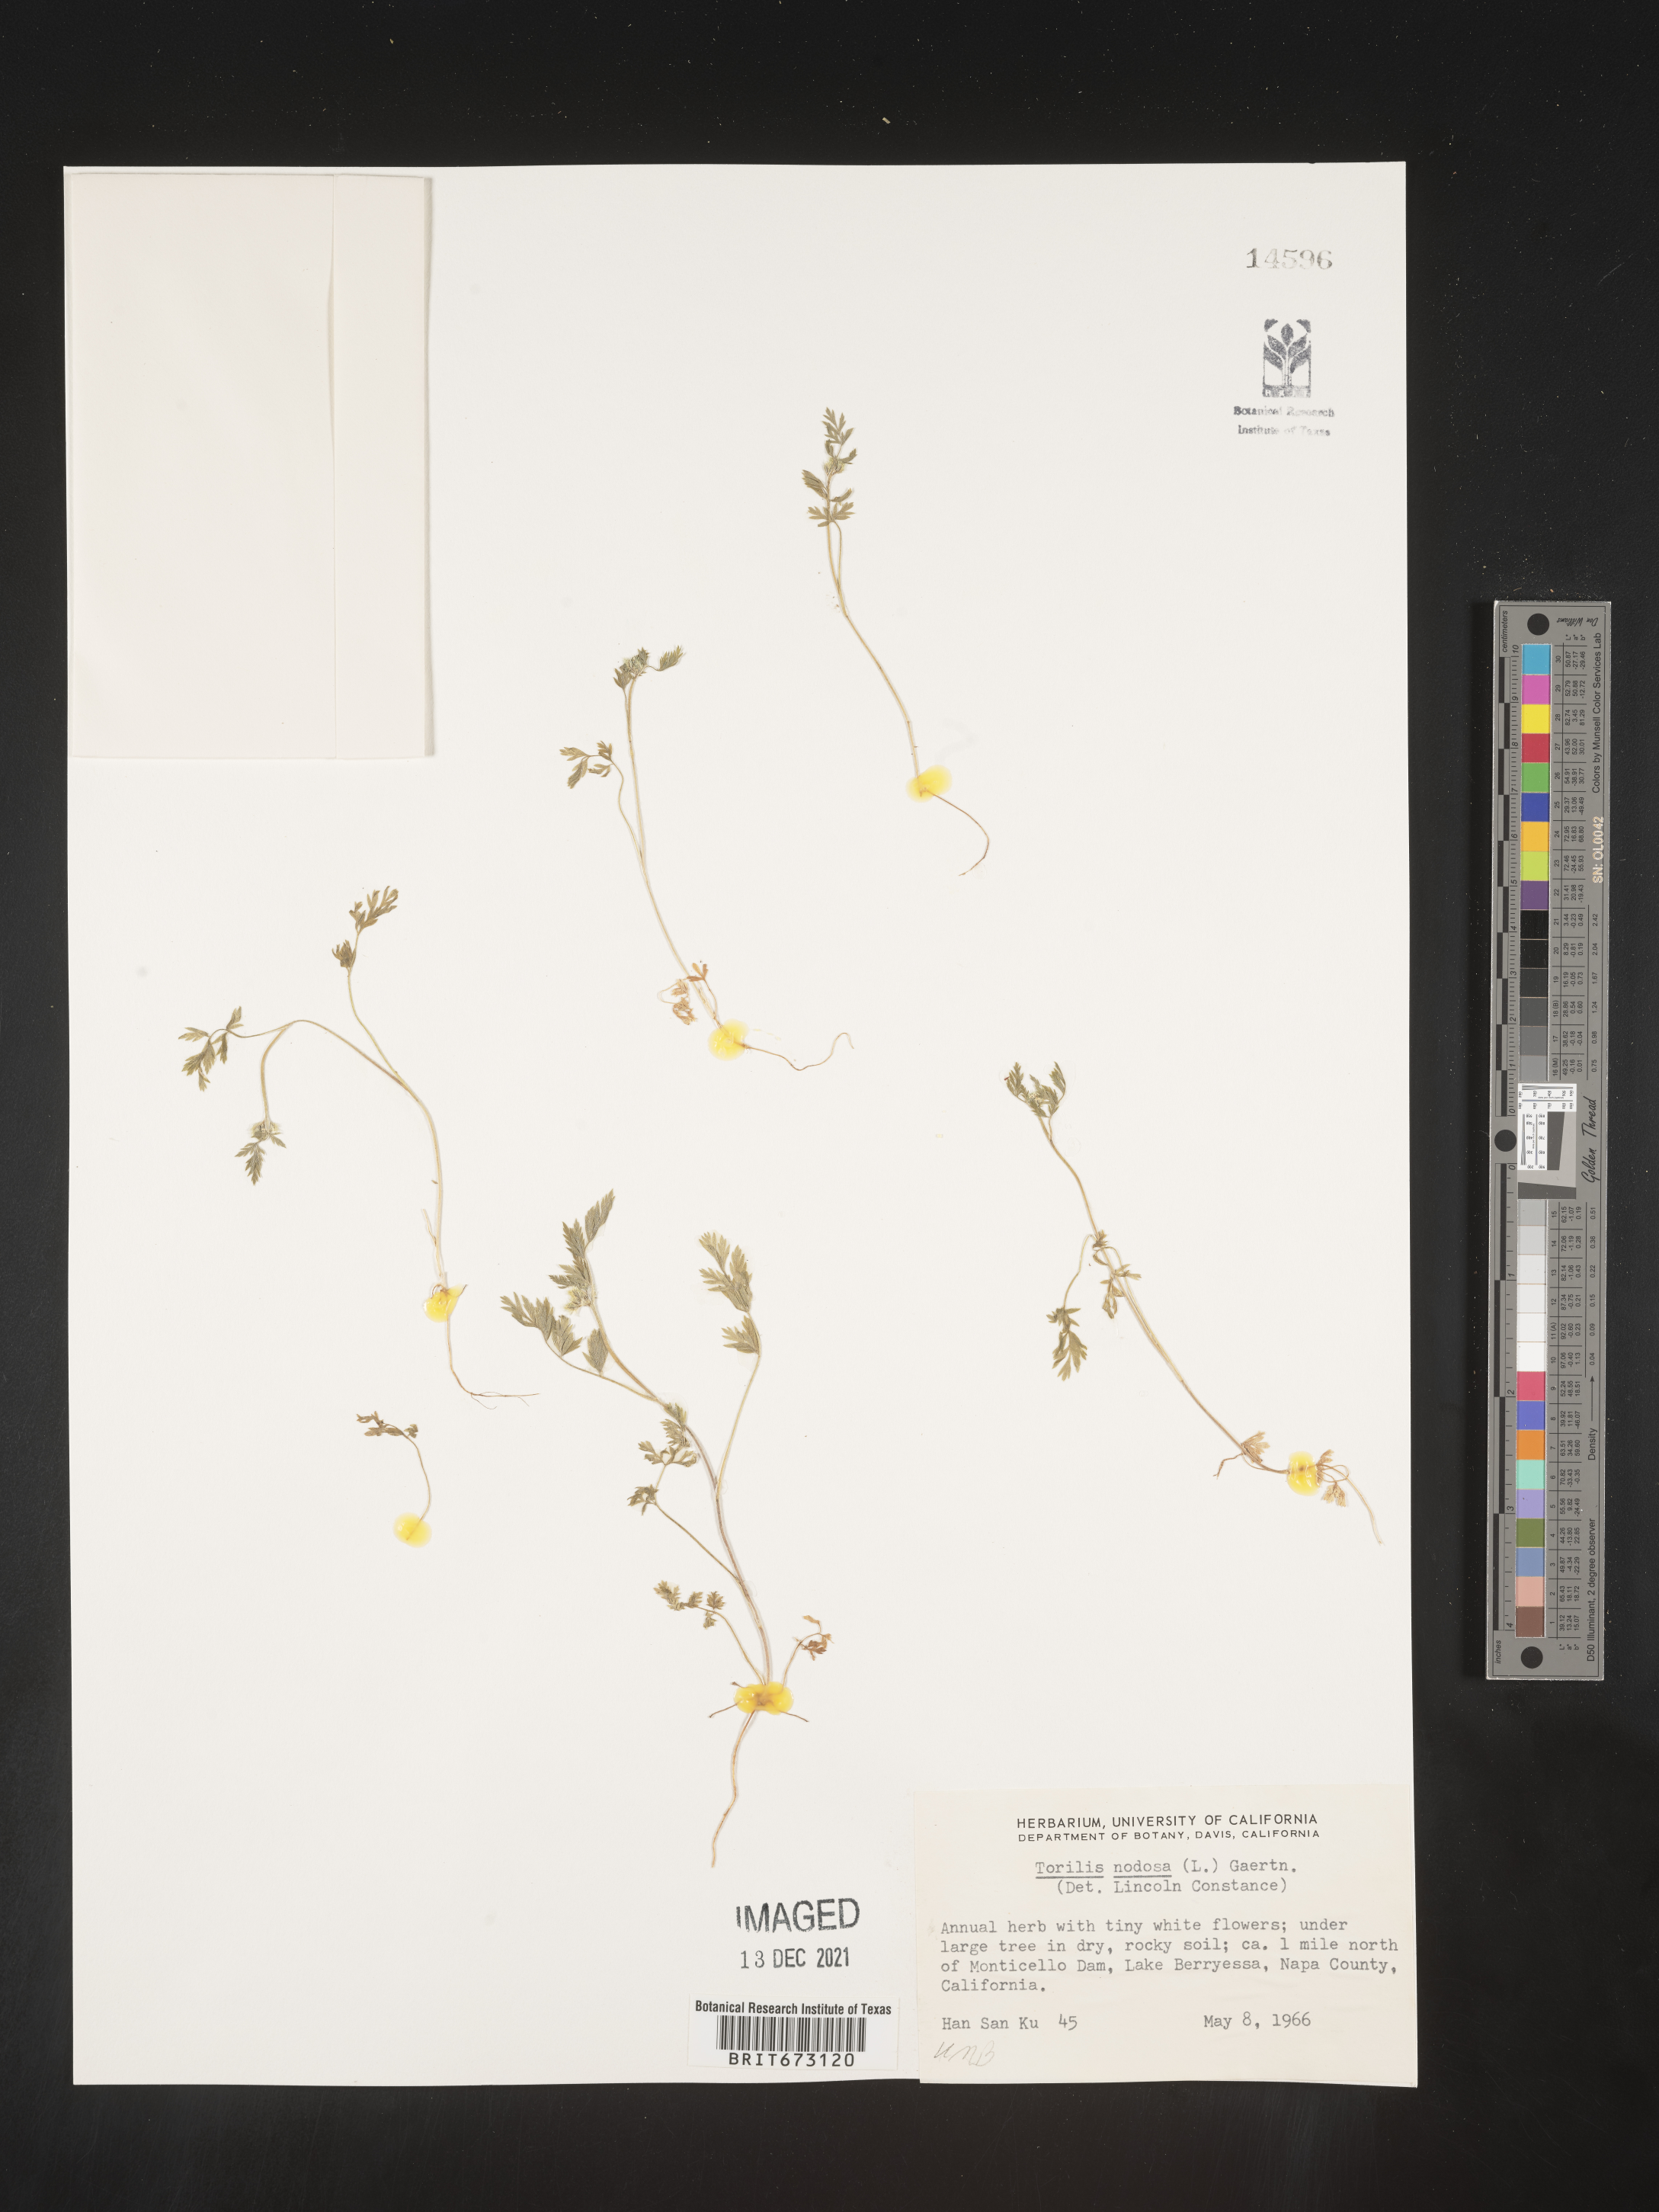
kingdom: Plantae
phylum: Tracheophyta
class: Magnoliopsida
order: Apiales
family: Apiaceae
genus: Torilis
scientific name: Torilis nodosa
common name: Knotted hedge-parsley
